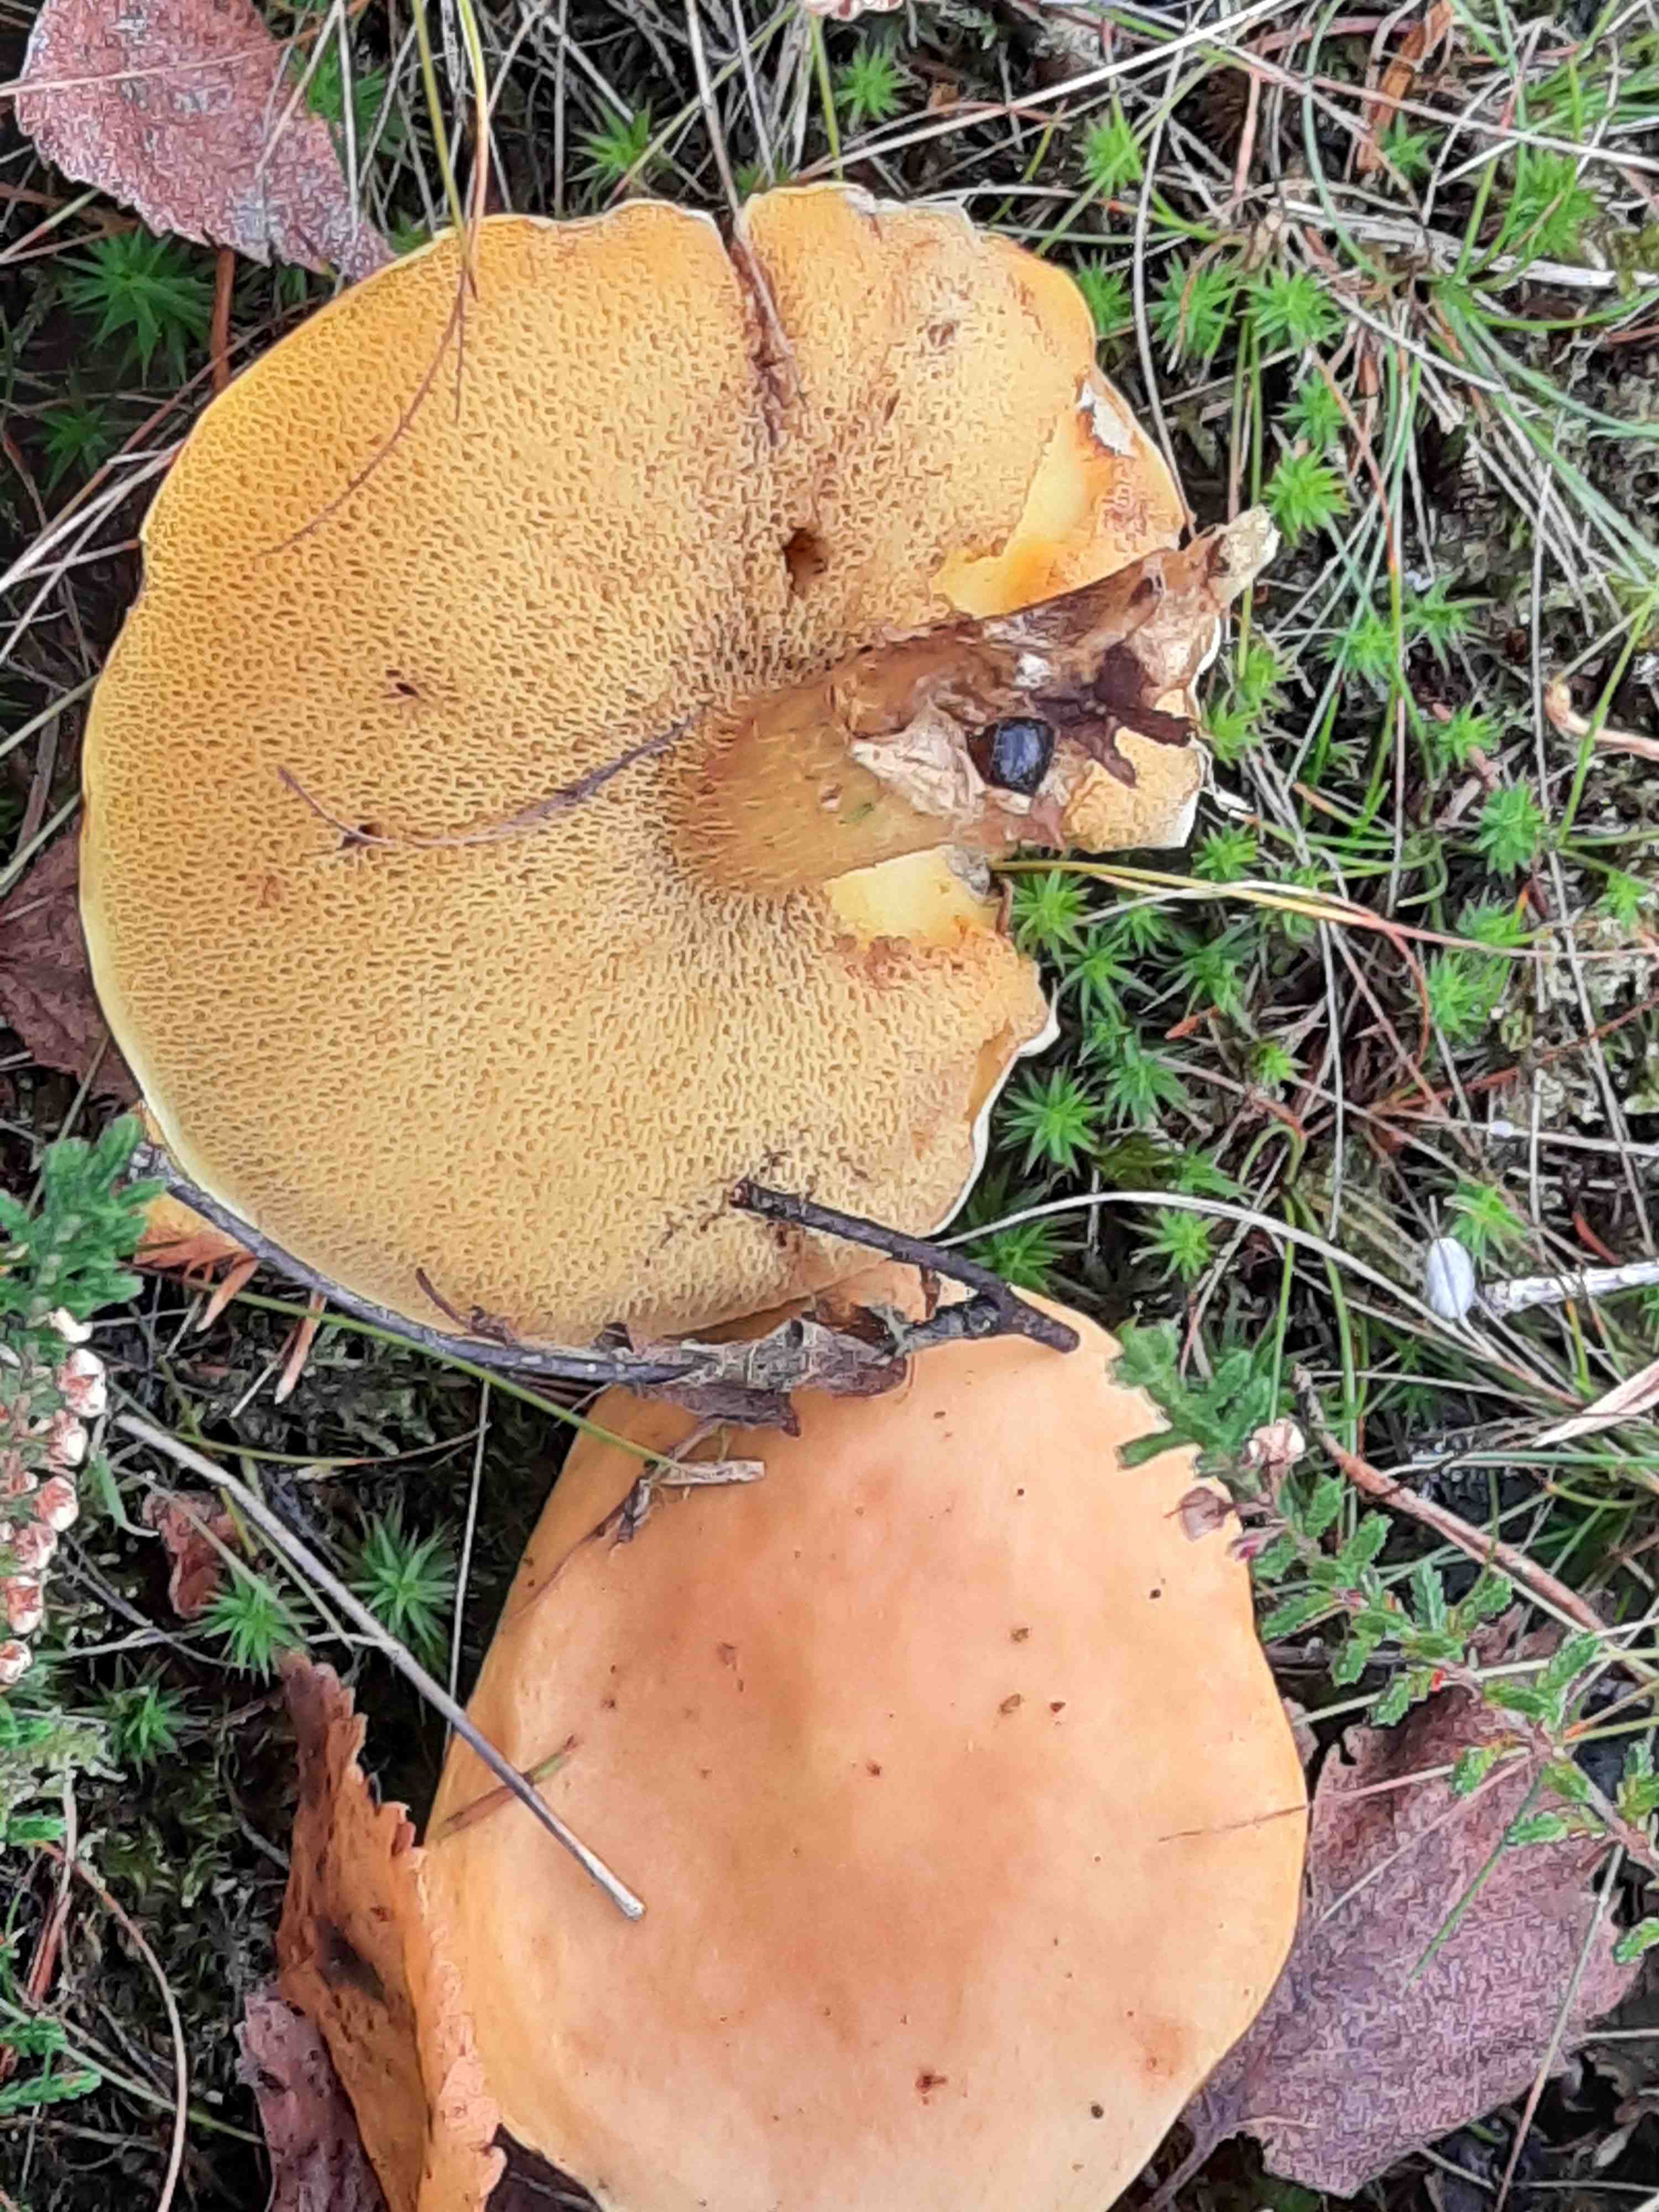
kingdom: Fungi
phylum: Basidiomycota
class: Agaricomycetes
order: Boletales
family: Suillaceae
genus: Suillus
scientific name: Suillus grevillei
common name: lærke-slimrørhat
